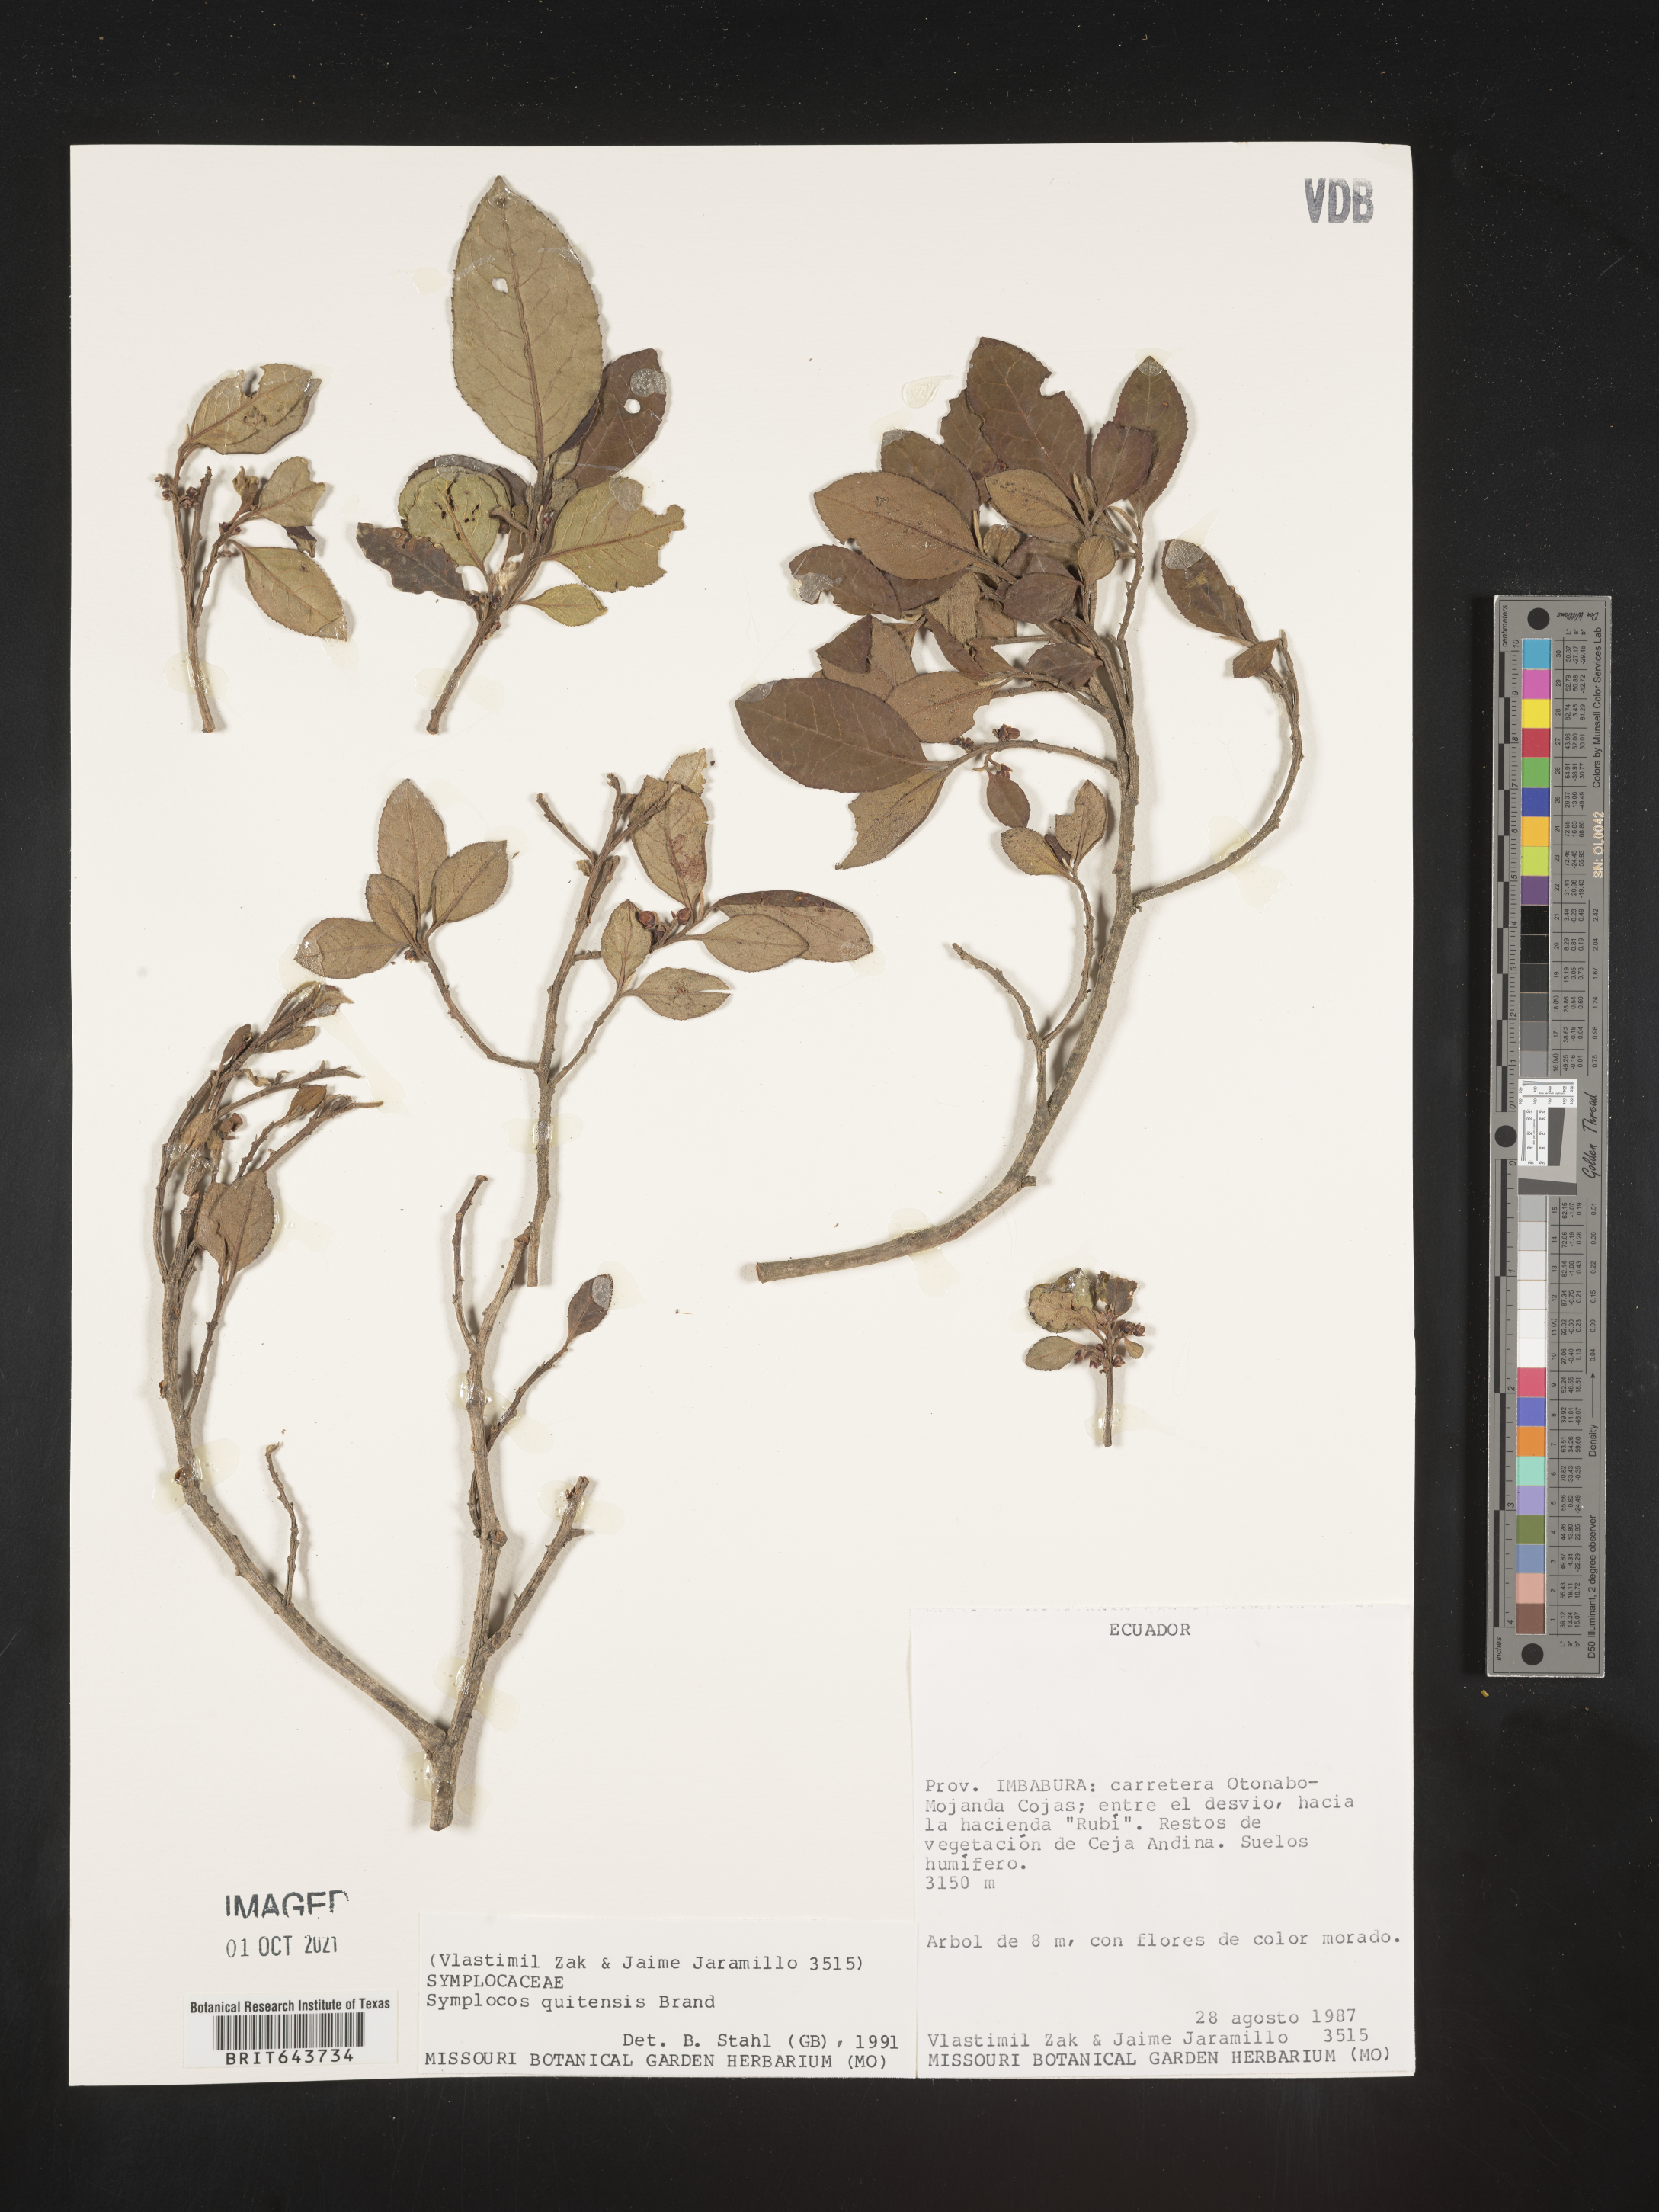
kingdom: Plantae
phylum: Tracheophyta
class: Magnoliopsida
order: Ericales
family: Symplocaceae
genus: Symplocos
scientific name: Symplocos
